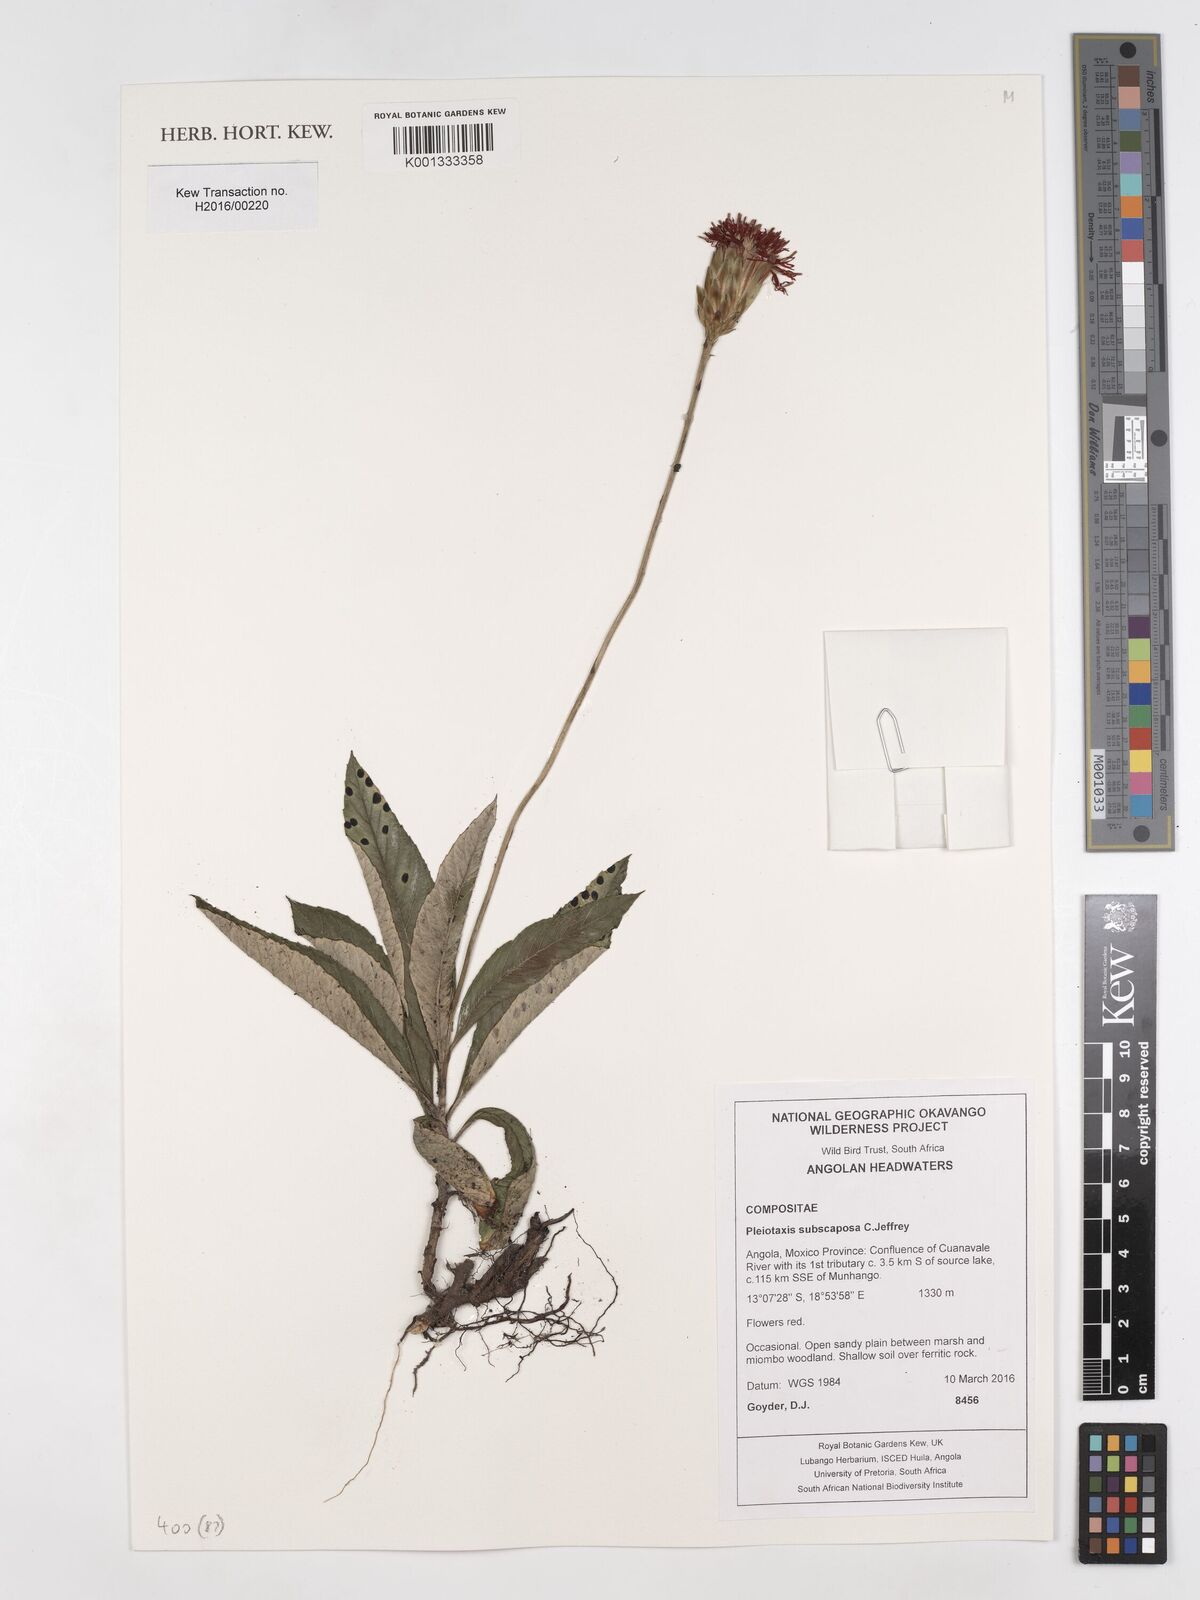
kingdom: Plantae
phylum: Tracheophyta
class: Magnoliopsida
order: Asterales
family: Asteraceae
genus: Pleiotaxis
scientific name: Pleiotaxis subscaposa
